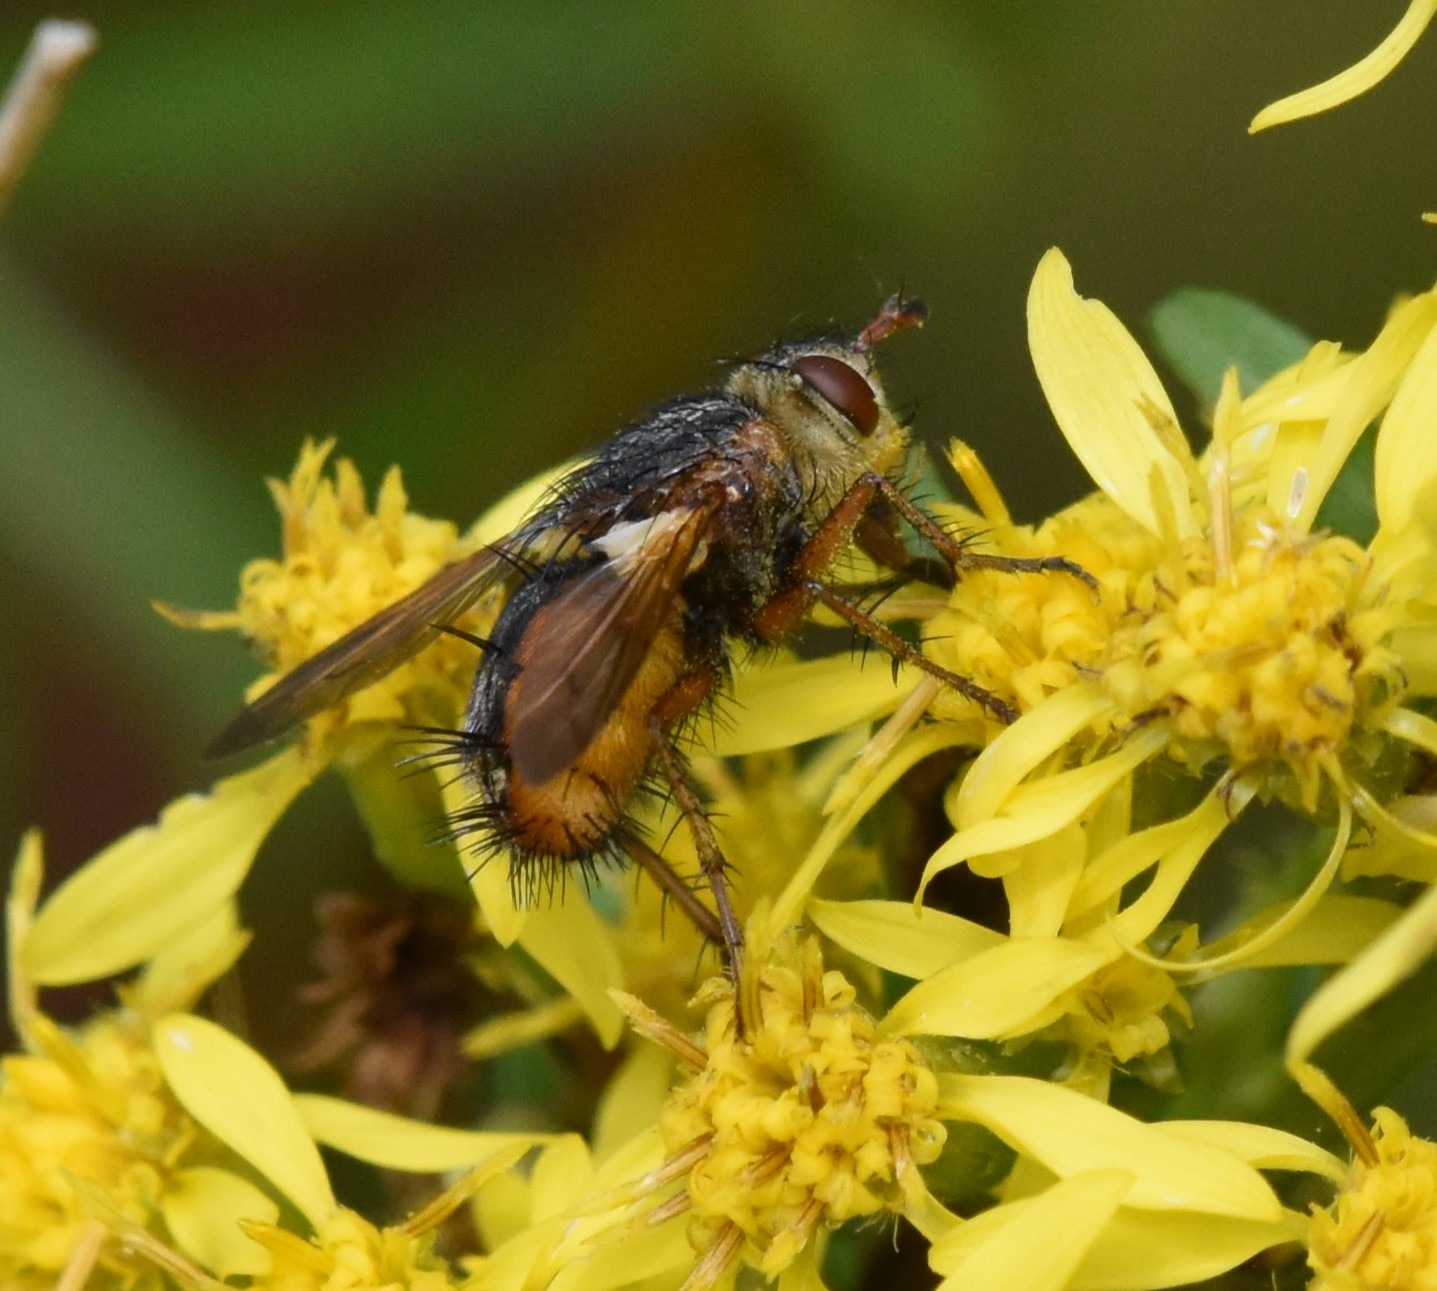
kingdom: Animalia
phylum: Arthropoda
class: Insecta
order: Diptera
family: Tachinidae
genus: Tachina
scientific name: Tachina fera
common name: Mellemfluen oskar
